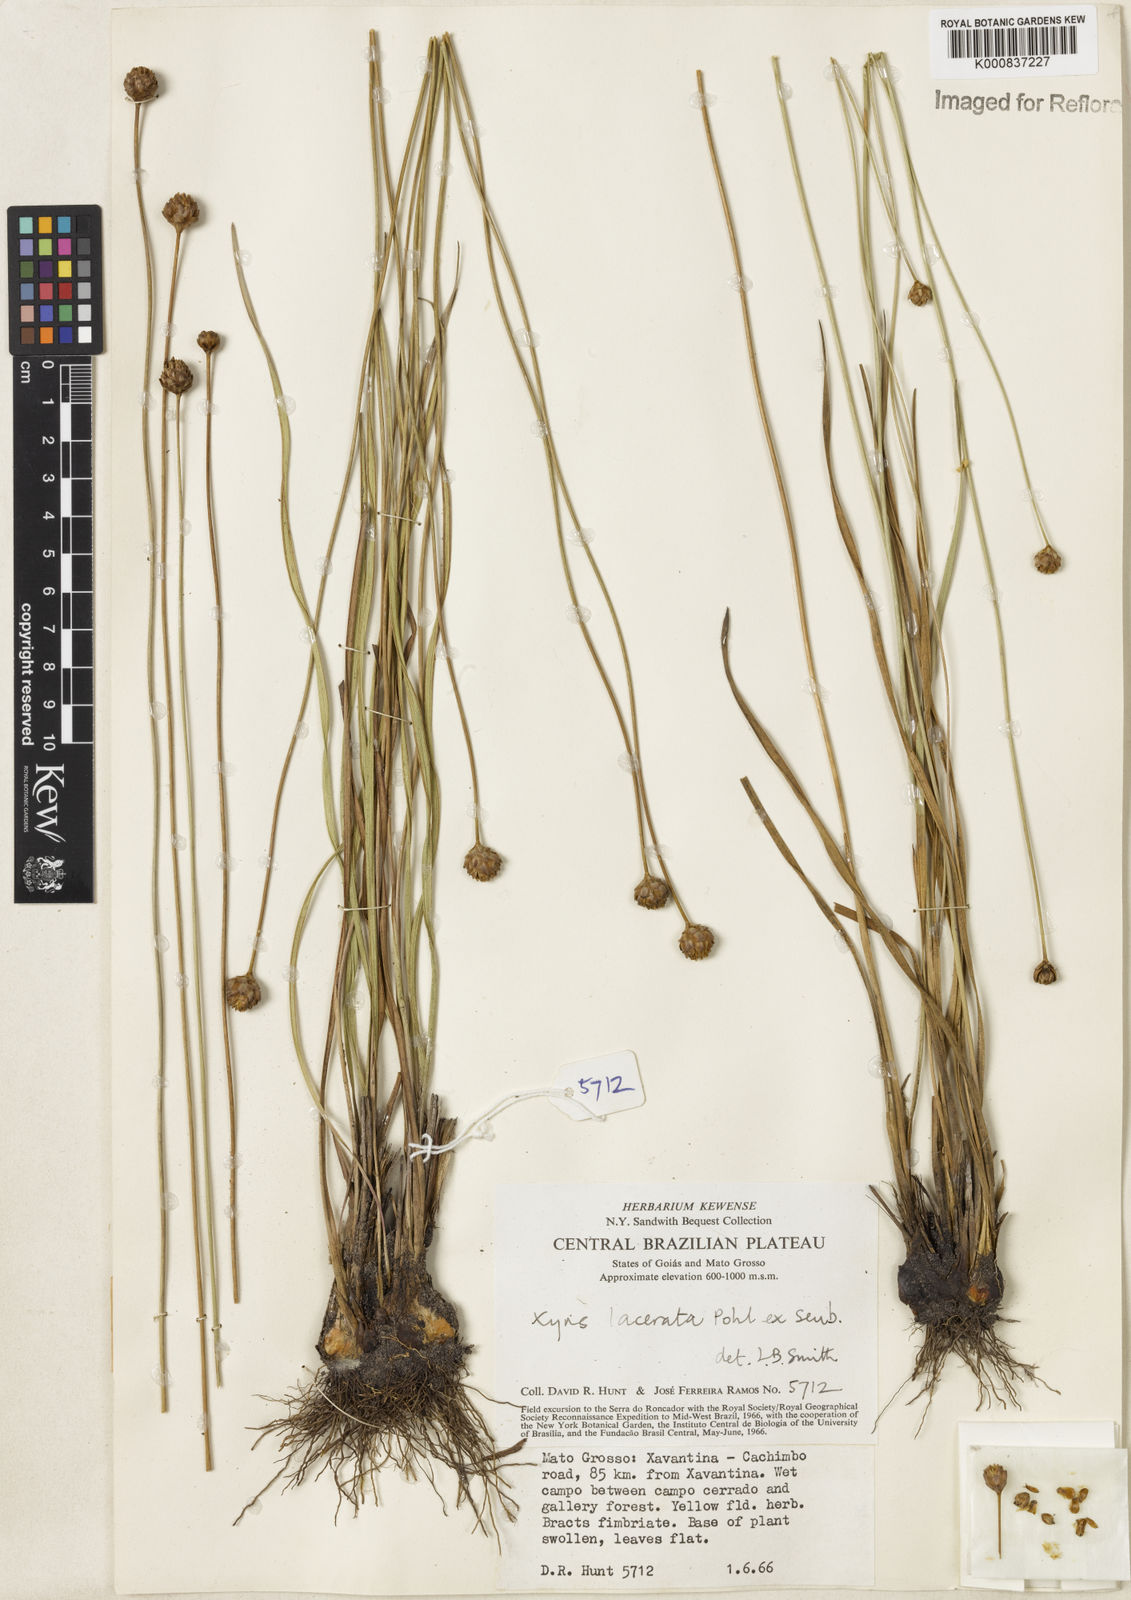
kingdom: Plantae
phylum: Tracheophyta
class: Liliopsida
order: Poales
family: Xyridaceae
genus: Xyris
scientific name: Xyris lacerata
